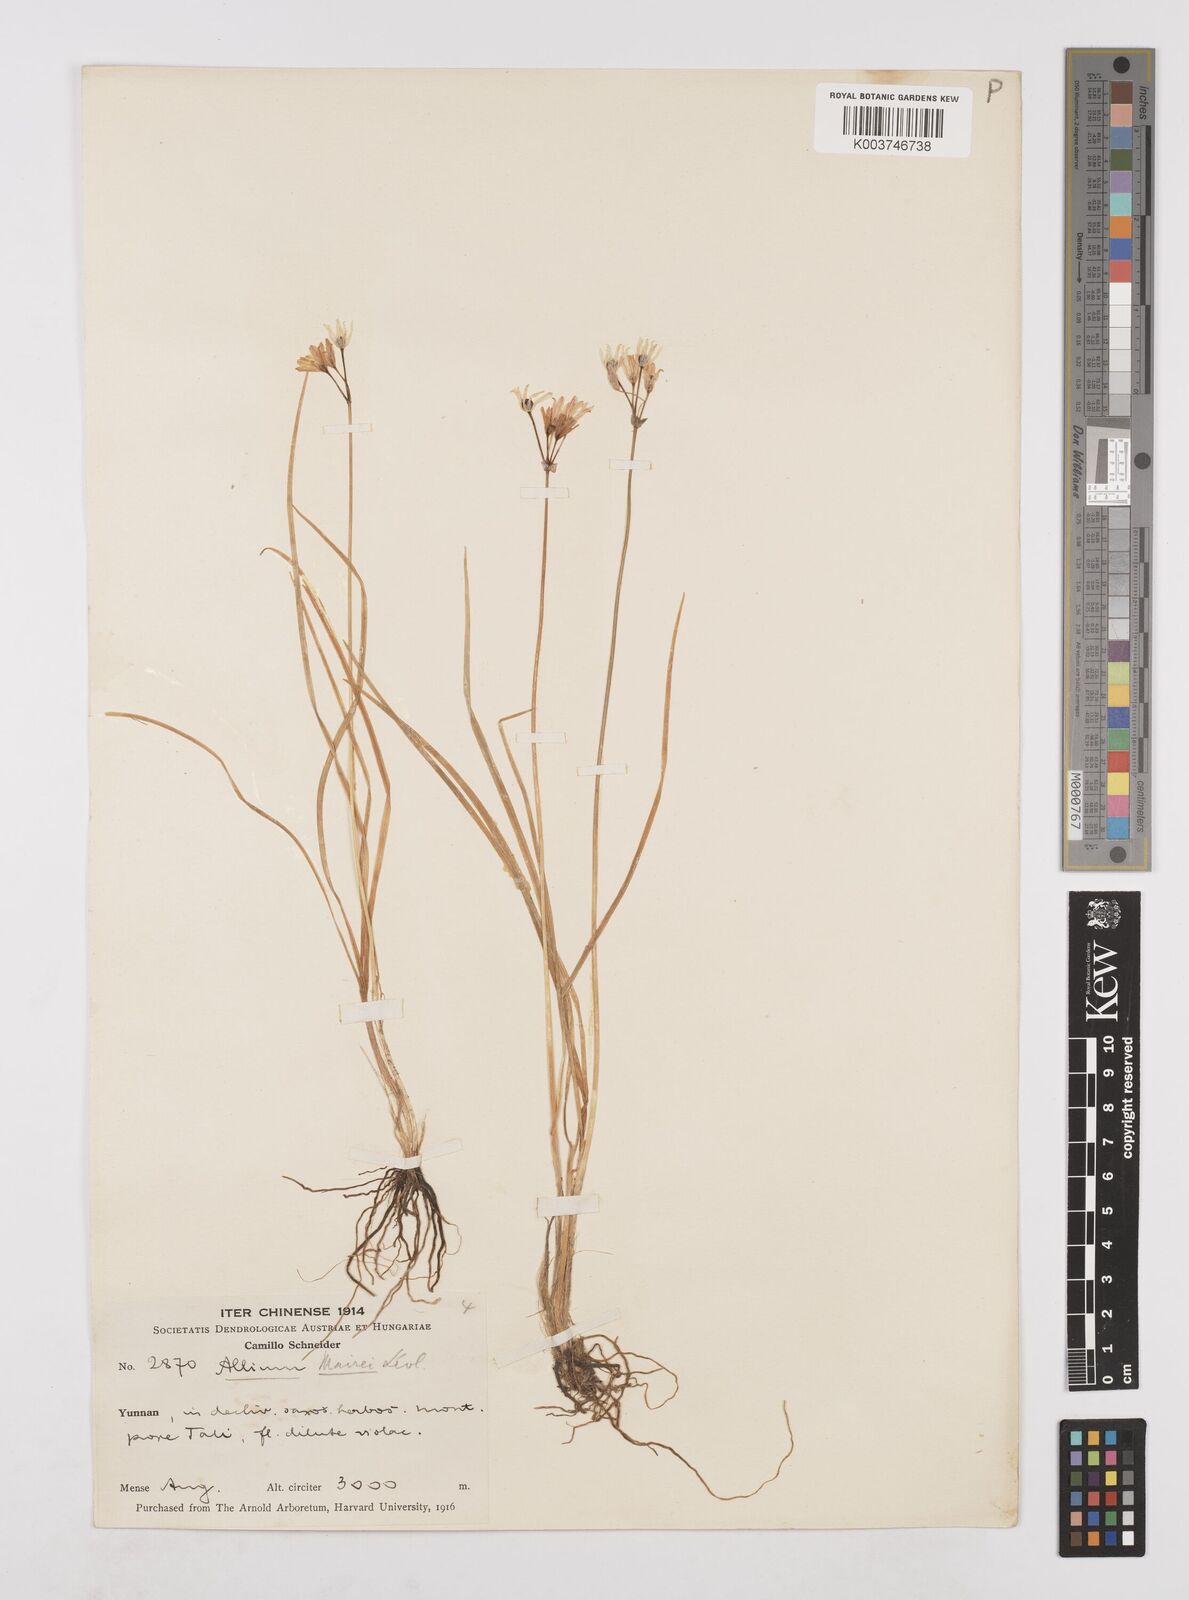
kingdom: Plantae
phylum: Tracheophyta
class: Liliopsida
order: Asparagales
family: Amaryllidaceae
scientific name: Amaryllidaceae
